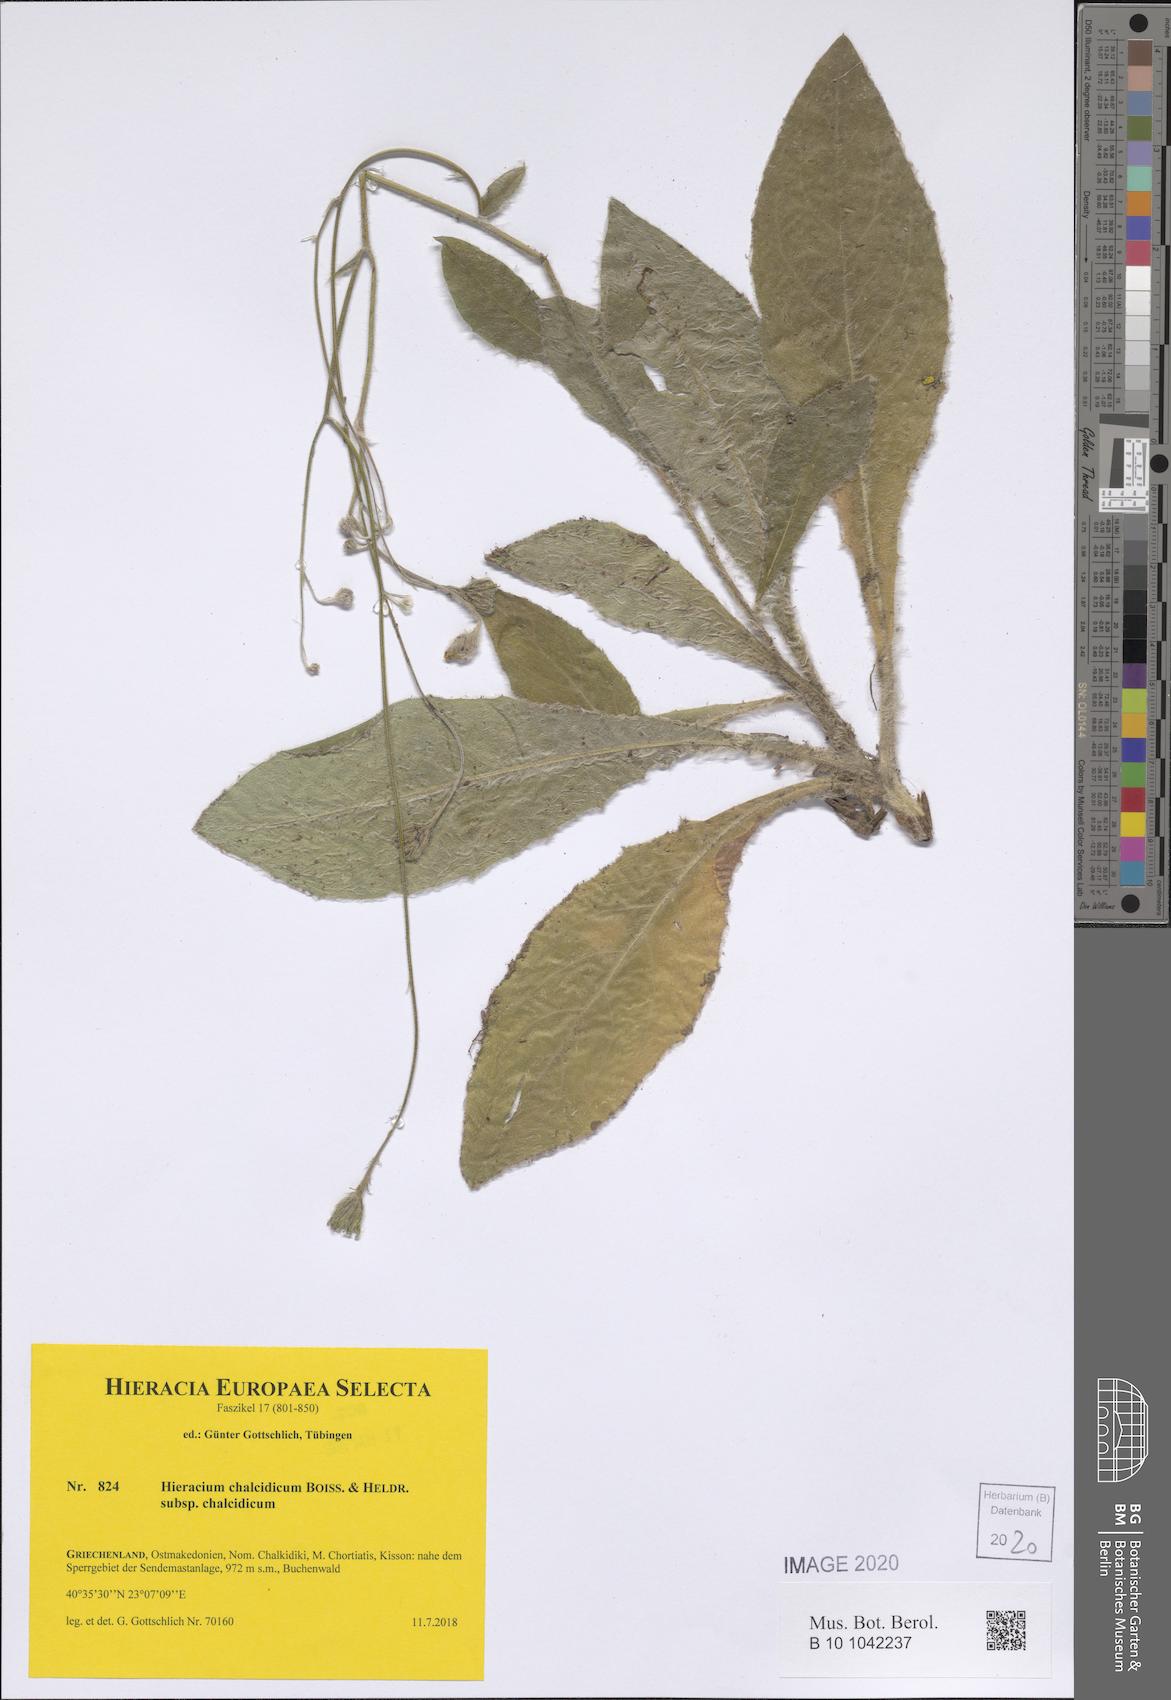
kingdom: Plantae
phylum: Tracheophyta
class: Magnoliopsida
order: Asterales
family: Asteraceae
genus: Hieracium
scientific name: Hieracium chalcidicum
